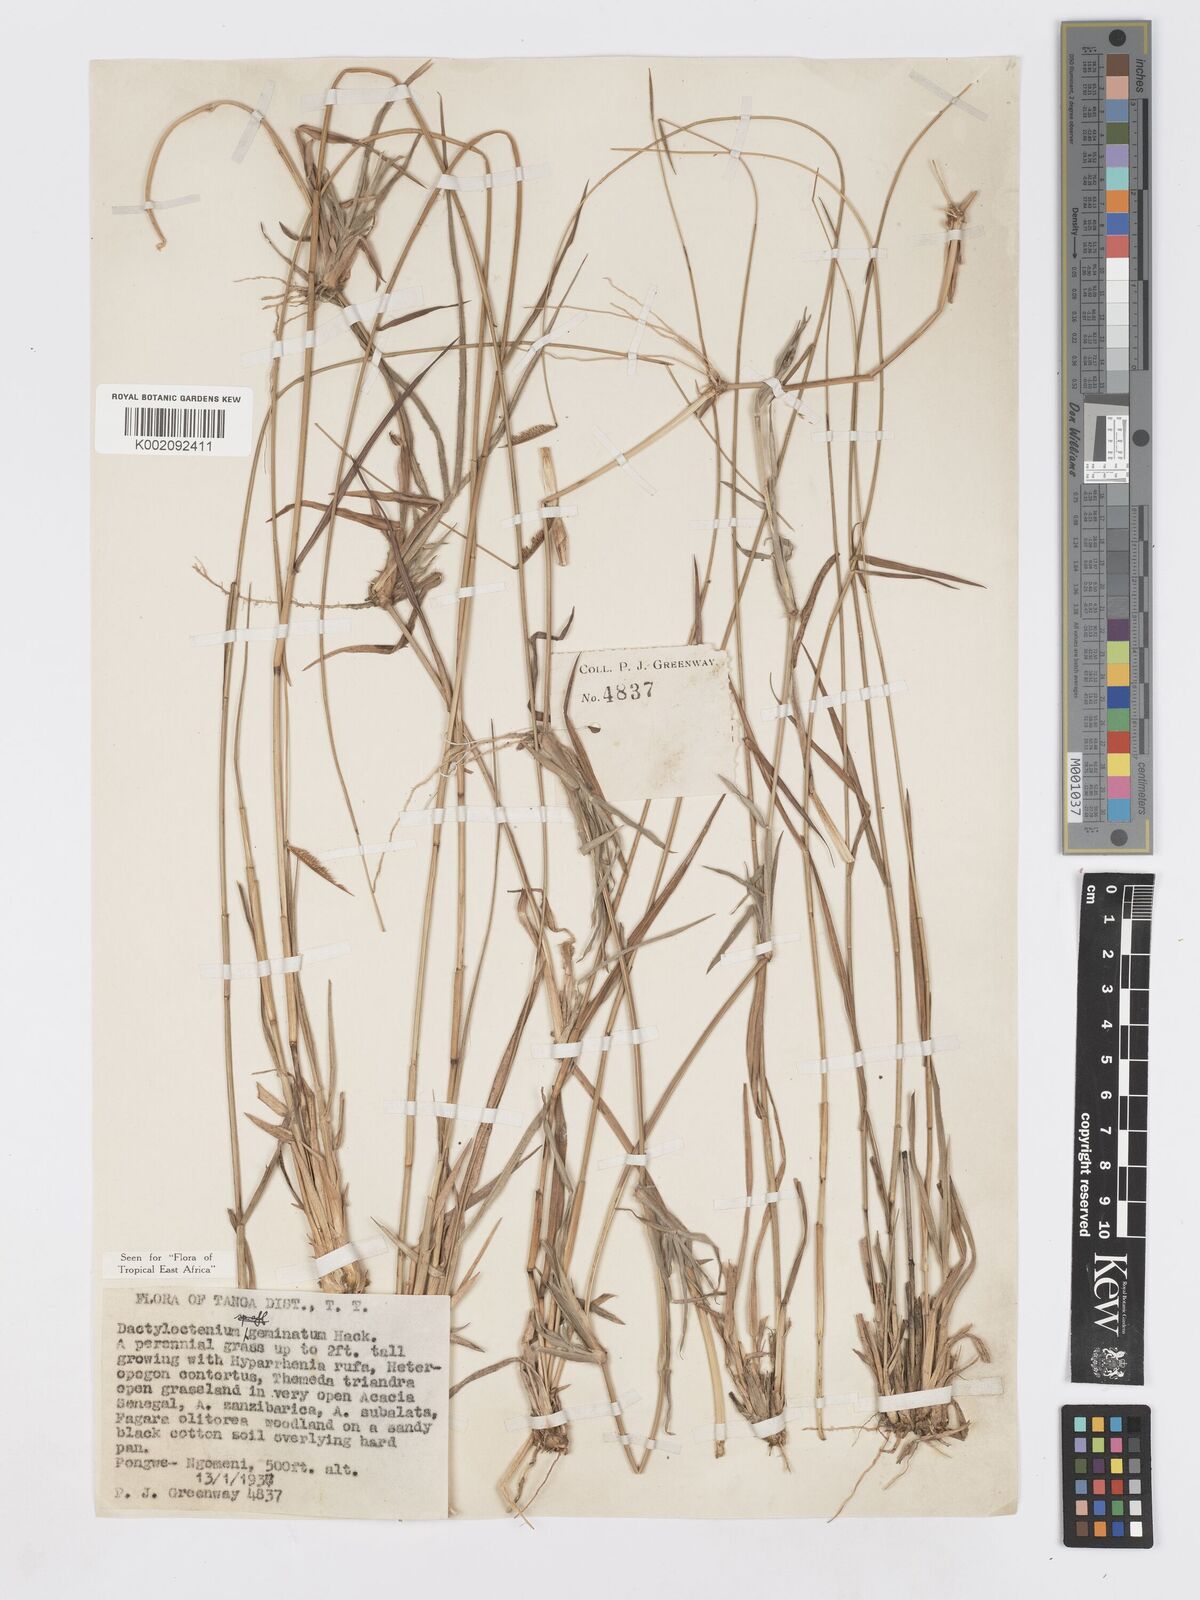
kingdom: Plantae
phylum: Tracheophyta
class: Liliopsida
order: Poales
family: Poaceae
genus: Dactyloctenium
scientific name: Dactyloctenium geminatum
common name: Crowsfoot grass
